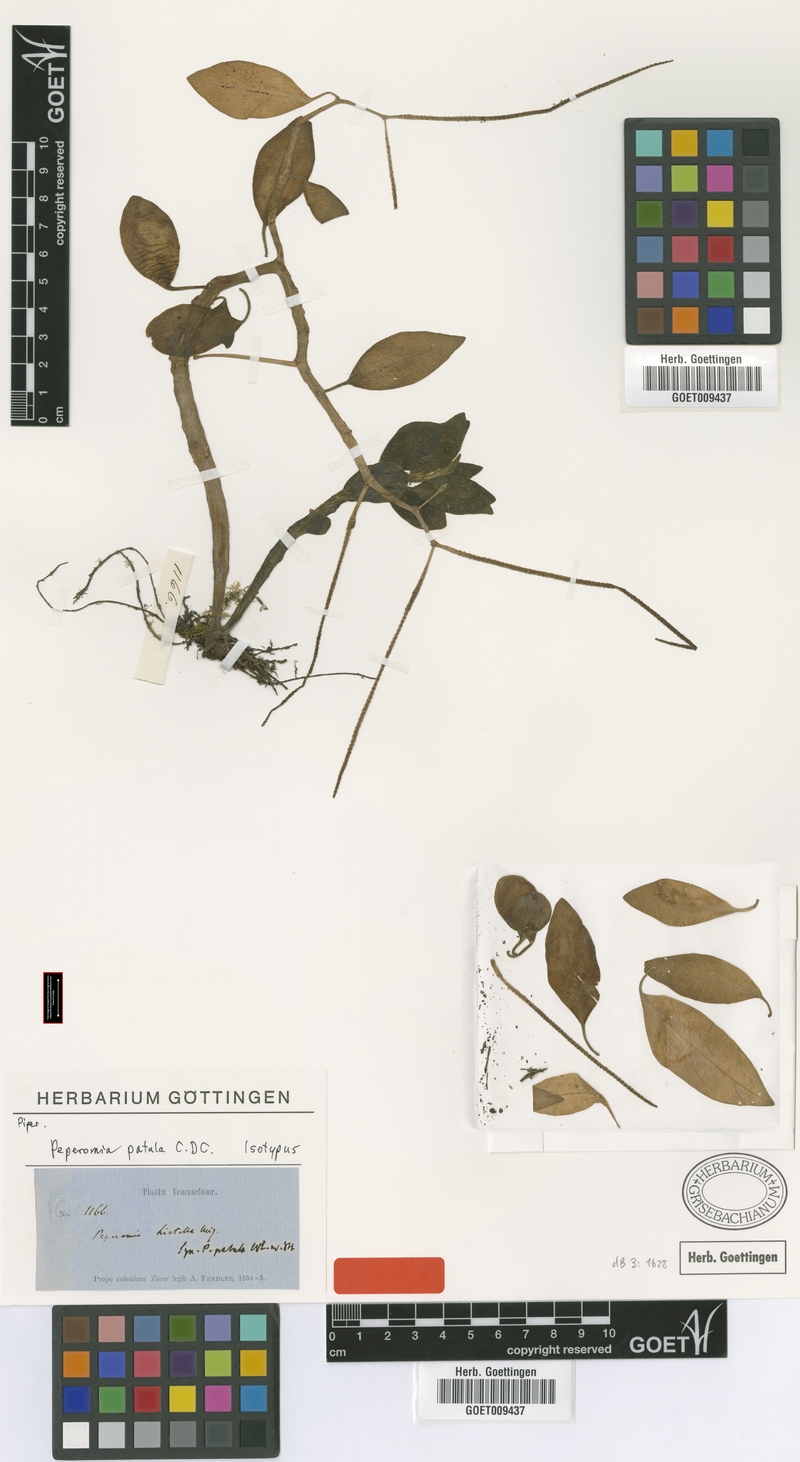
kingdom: Plantae
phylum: Tracheophyta
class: Magnoliopsida
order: Piperales
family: Piperaceae
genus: Peperomia
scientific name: Peperomia patula
